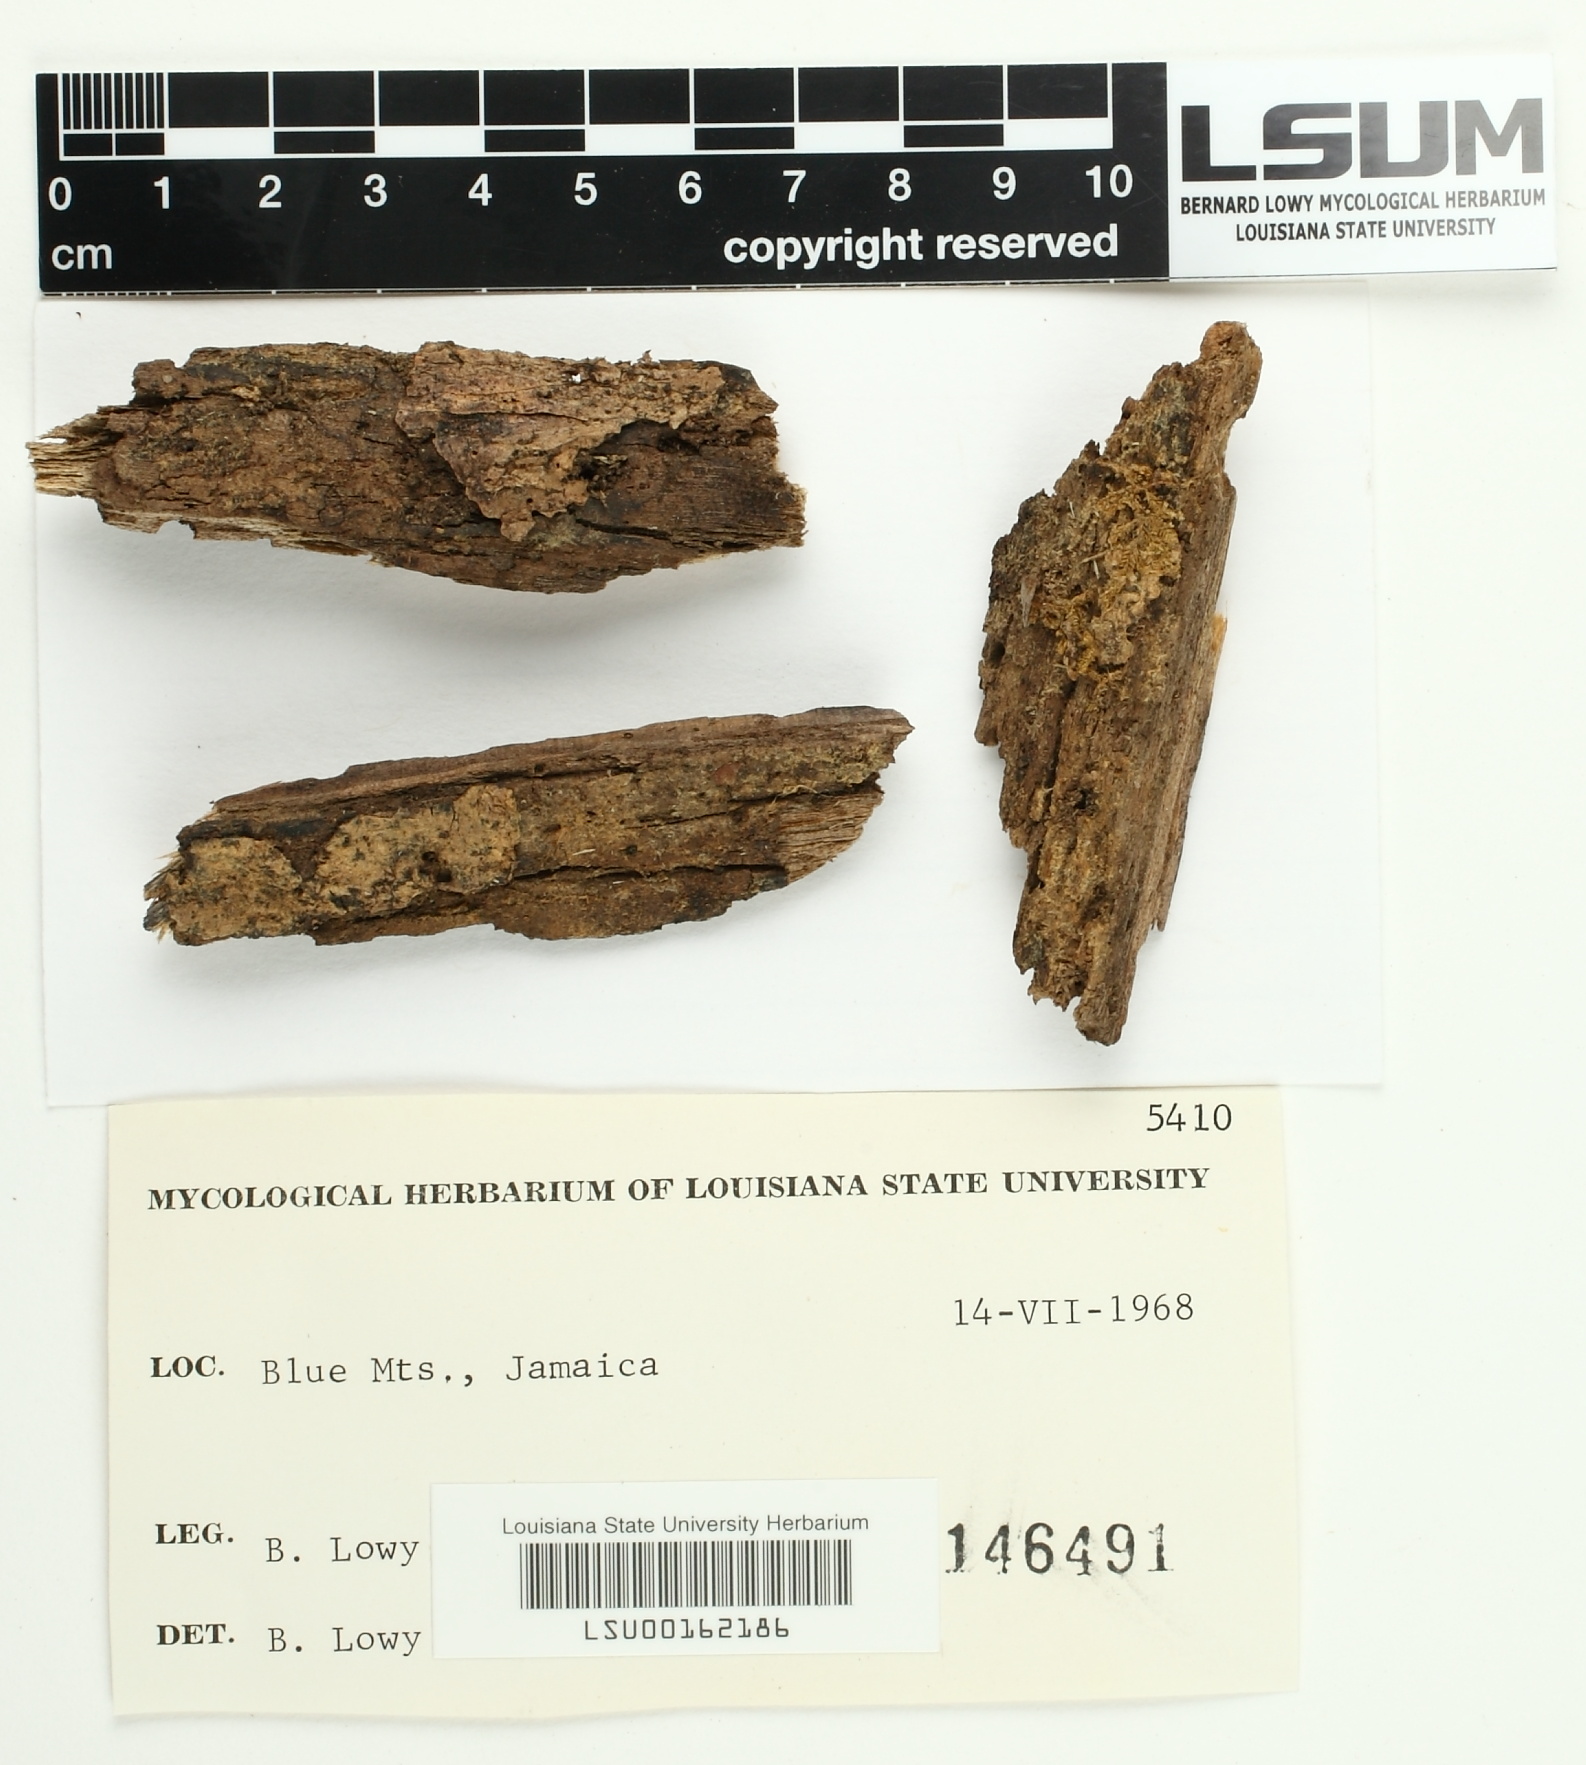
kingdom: Fungi
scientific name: Fungi
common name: Fungi
